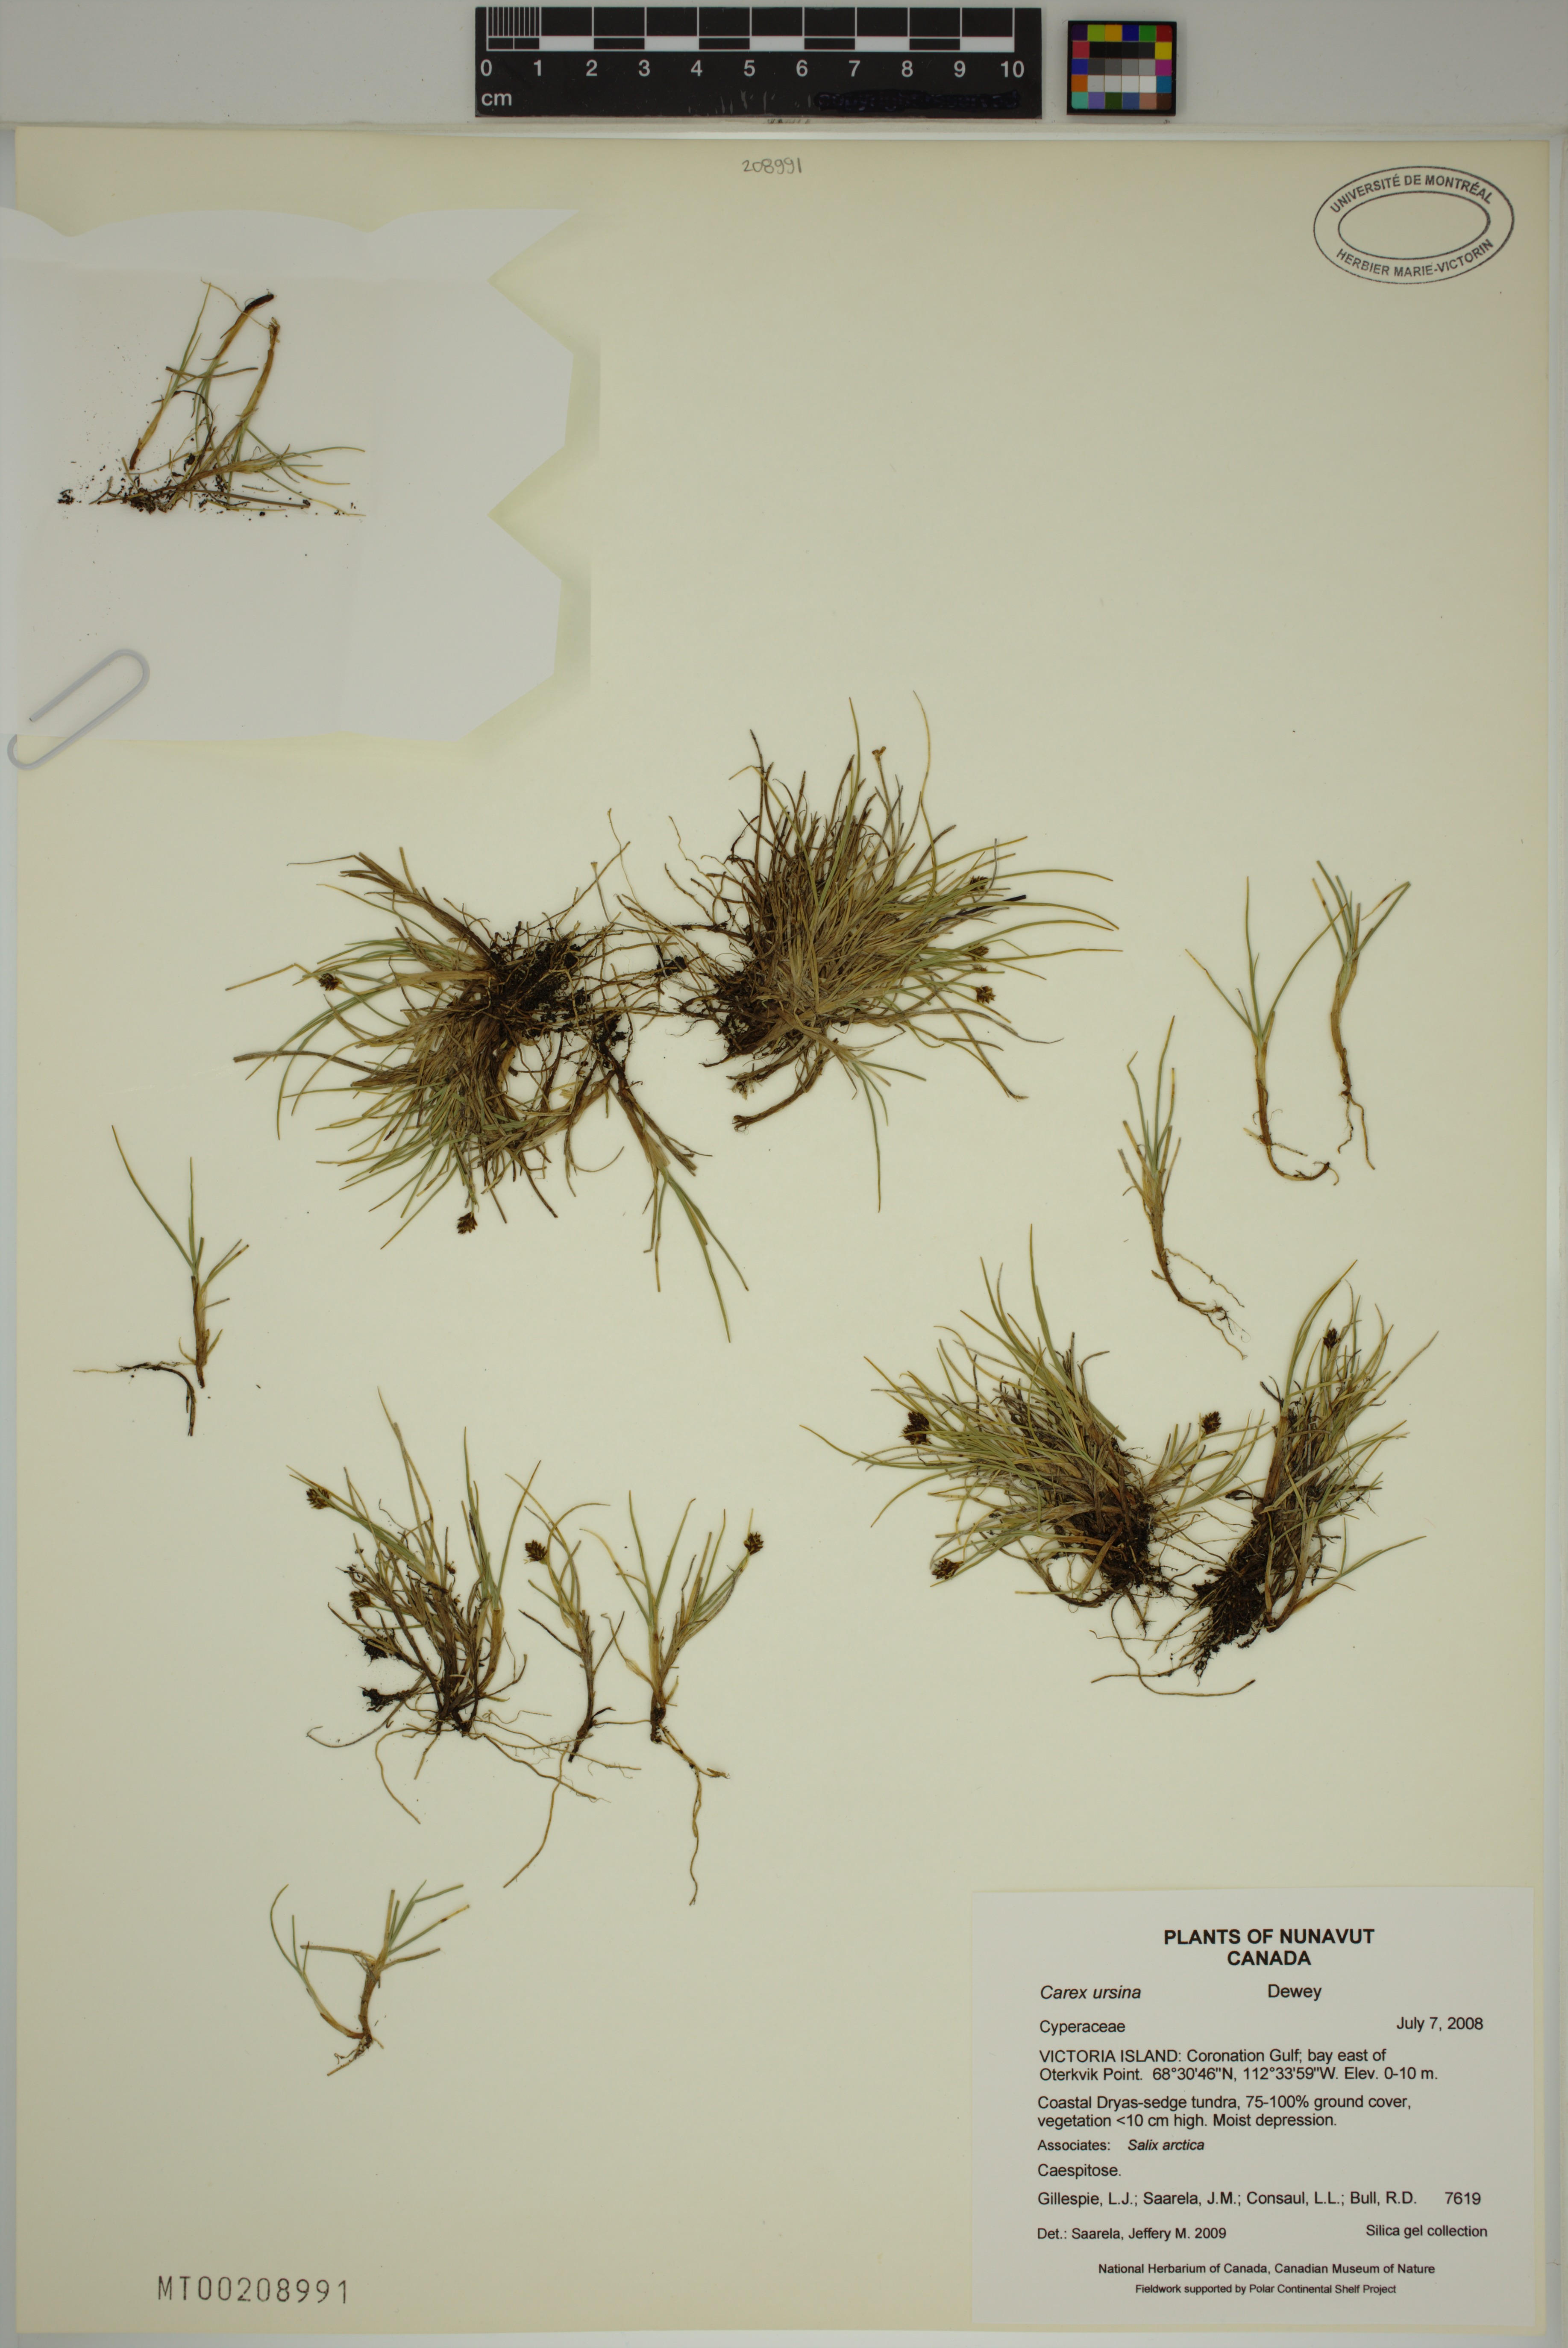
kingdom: Plantae
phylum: Tracheophyta
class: Liliopsida
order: Poales
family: Cyperaceae
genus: Carex
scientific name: Carex ursina
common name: Bear sedge
